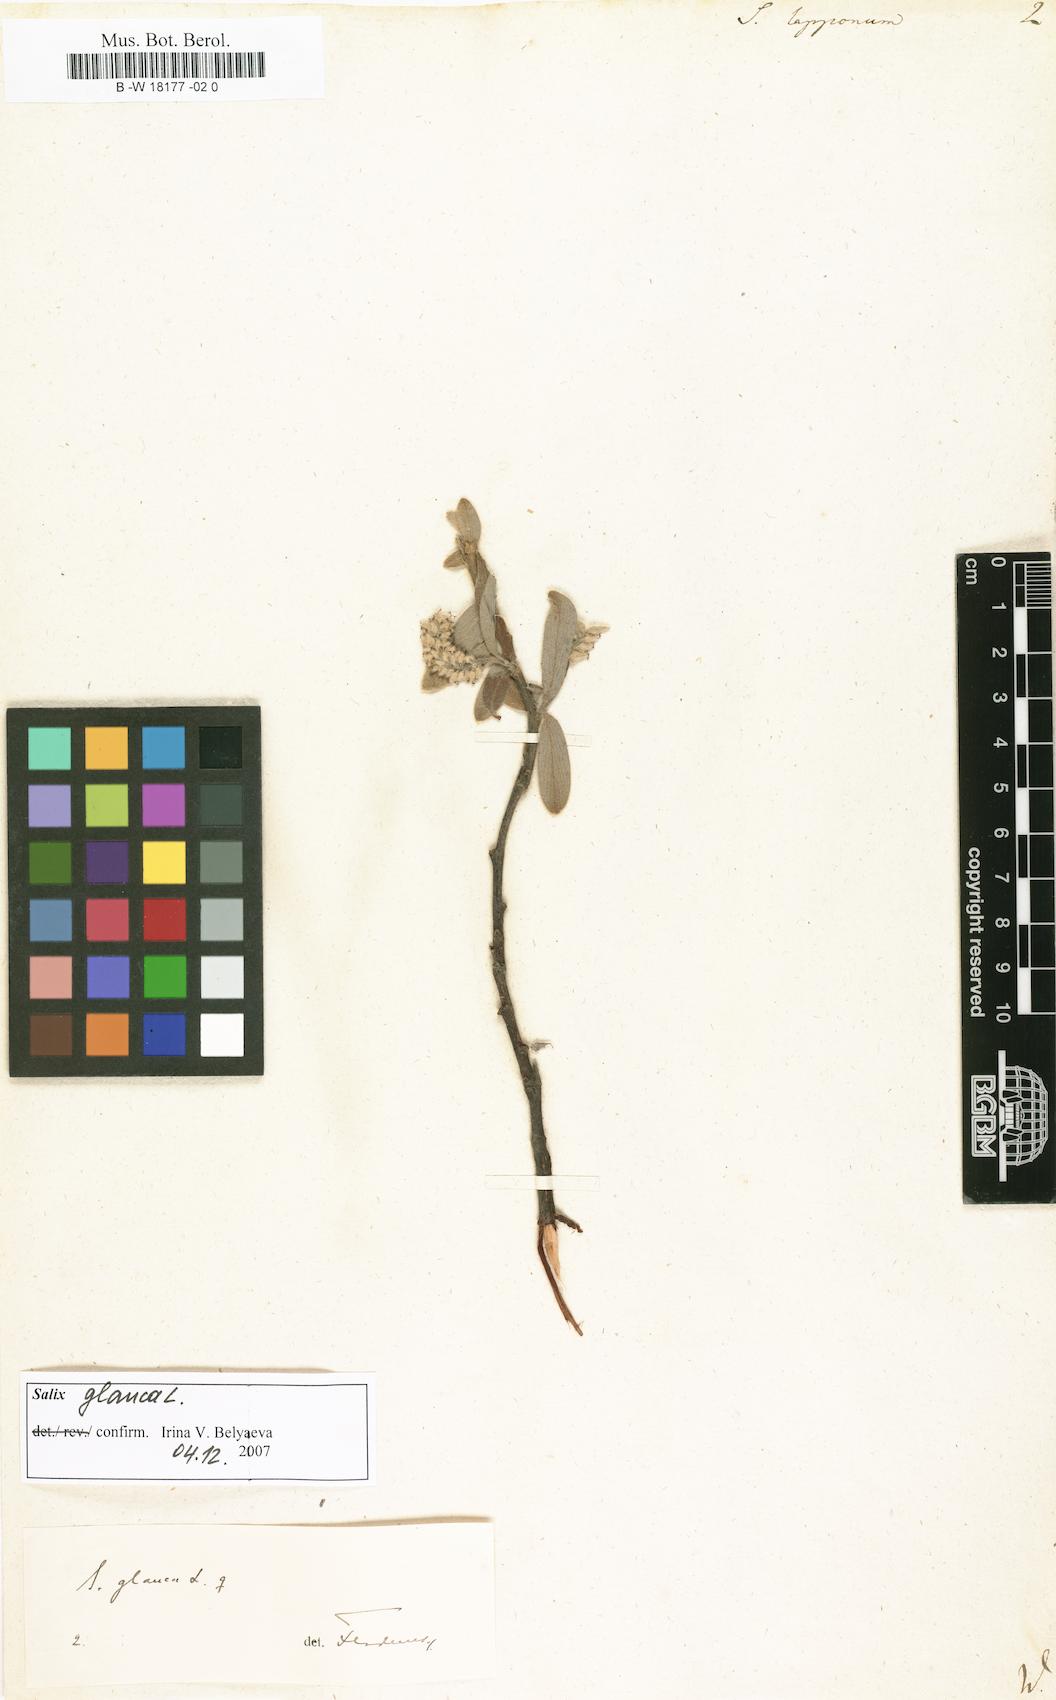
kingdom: Plantae
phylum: Tracheophyta
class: Magnoliopsida
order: Malpighiales
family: Salicaceae
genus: Salix
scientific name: Salix lapponum
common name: Downy willow
